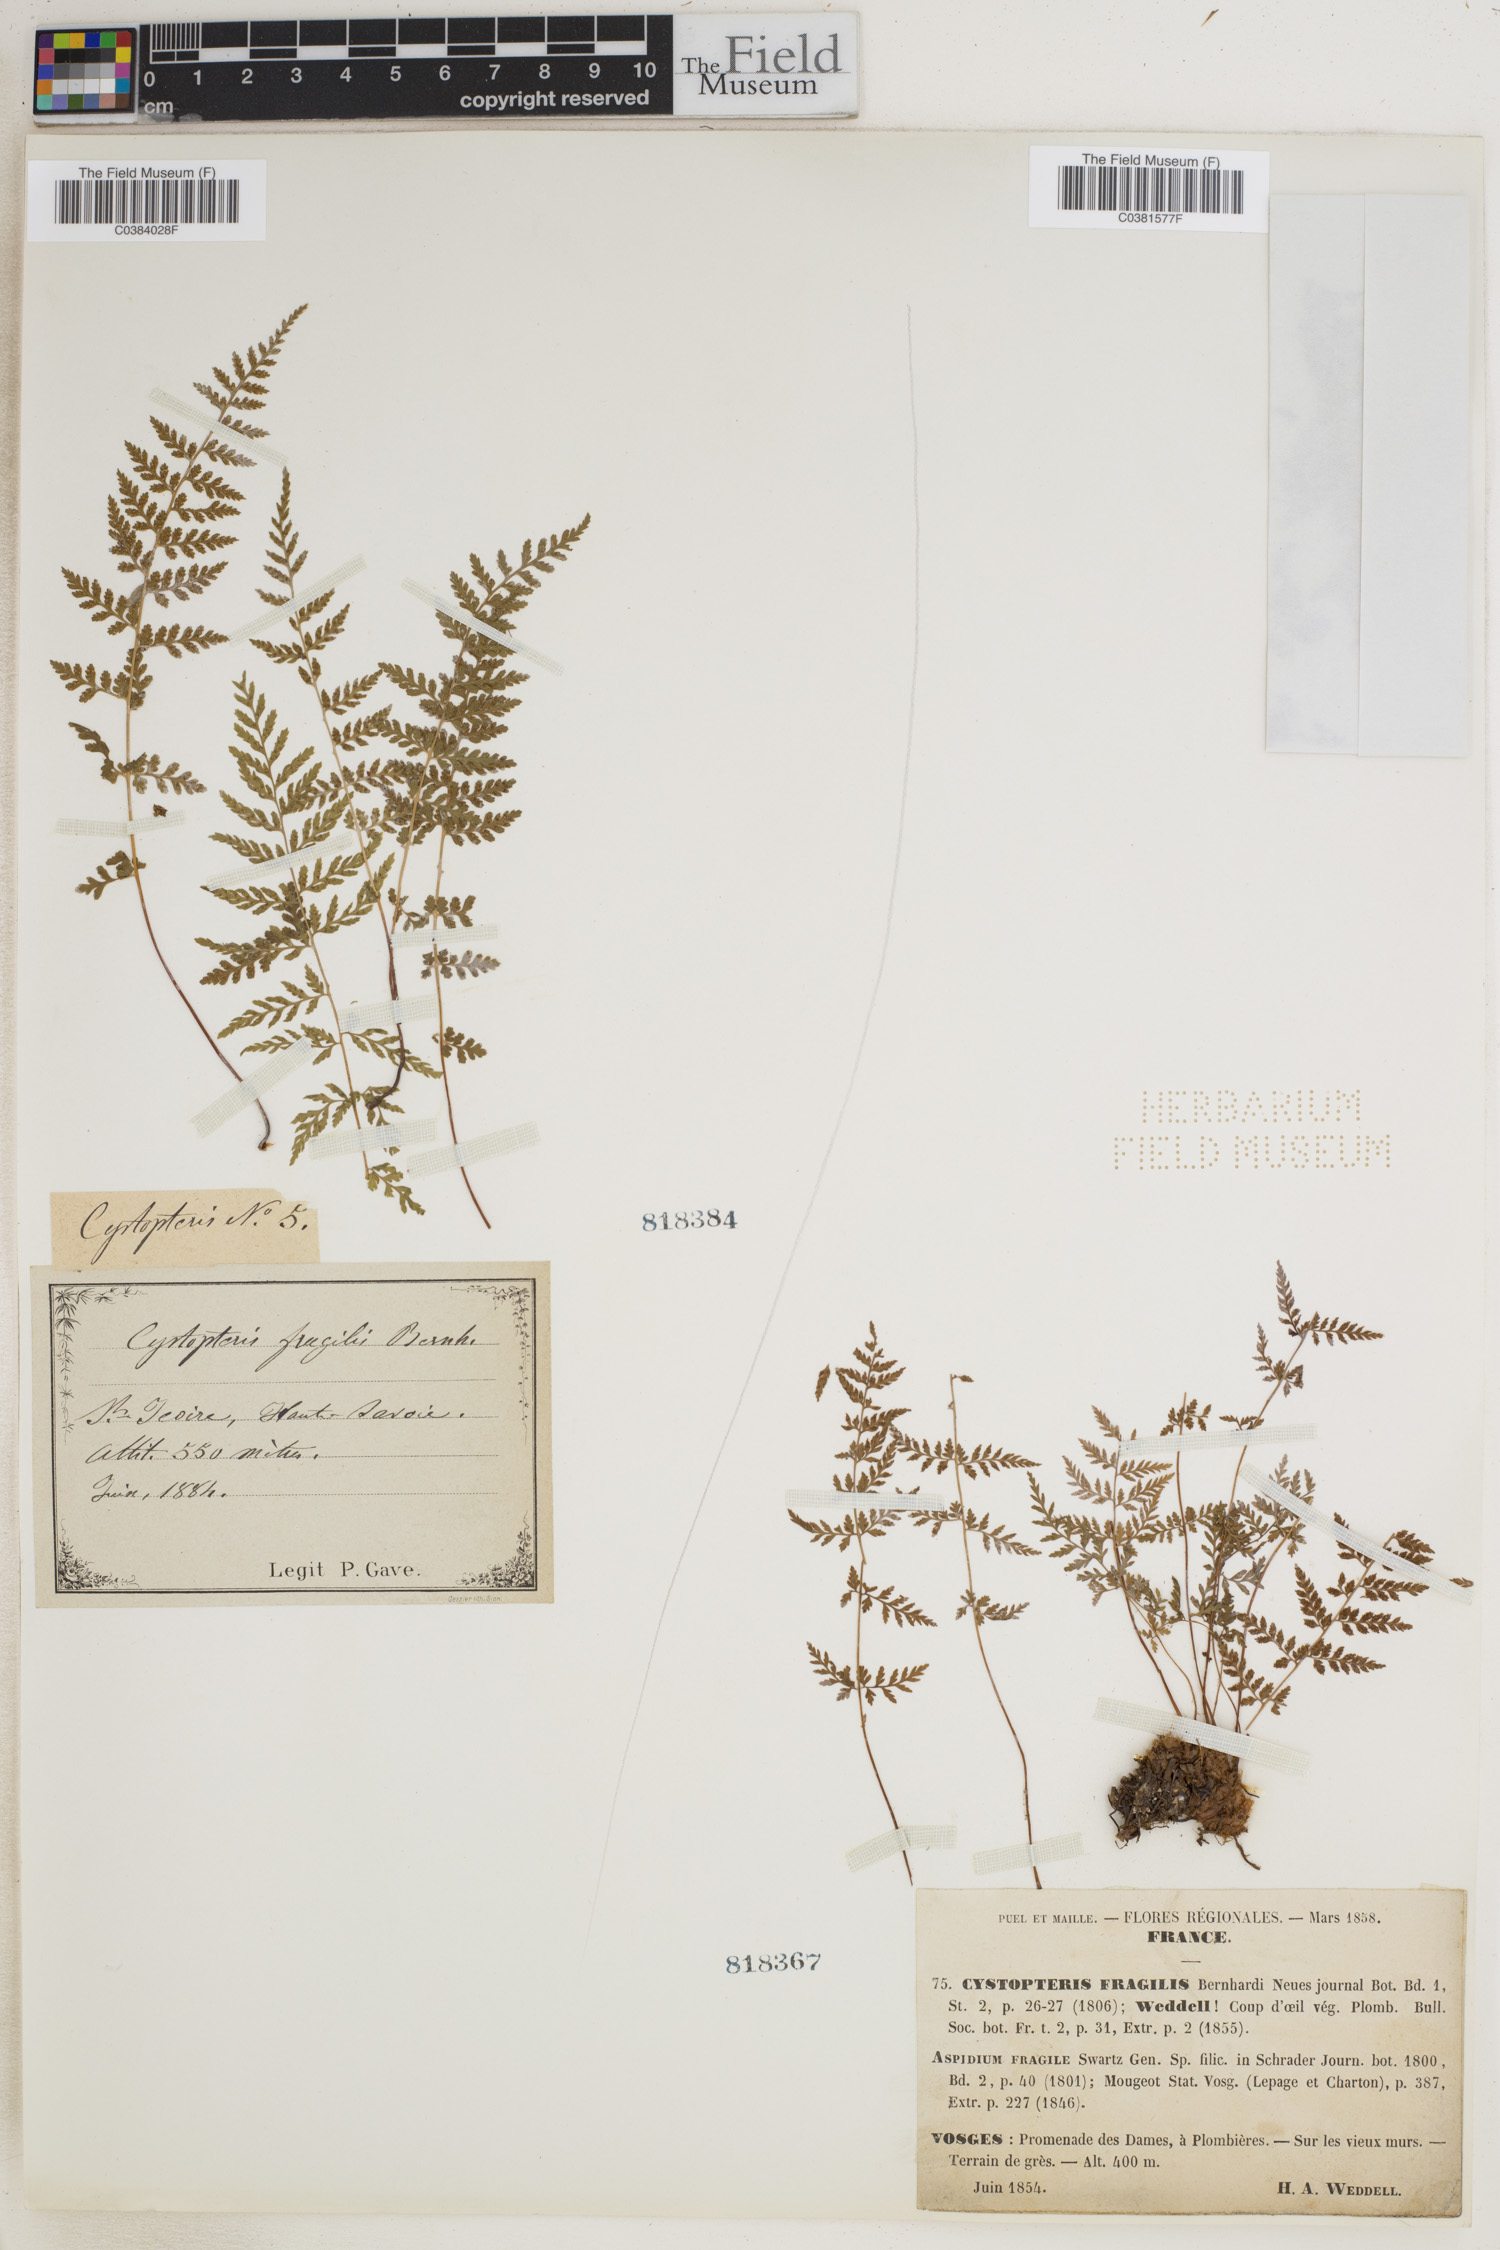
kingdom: Plantae
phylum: Tracheophyta
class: Polypodiopsida
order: Polypodiales
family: Cystopteridaceae
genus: Cystopteris
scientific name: Cystopteris fragilis
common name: Brittle bladder fern
